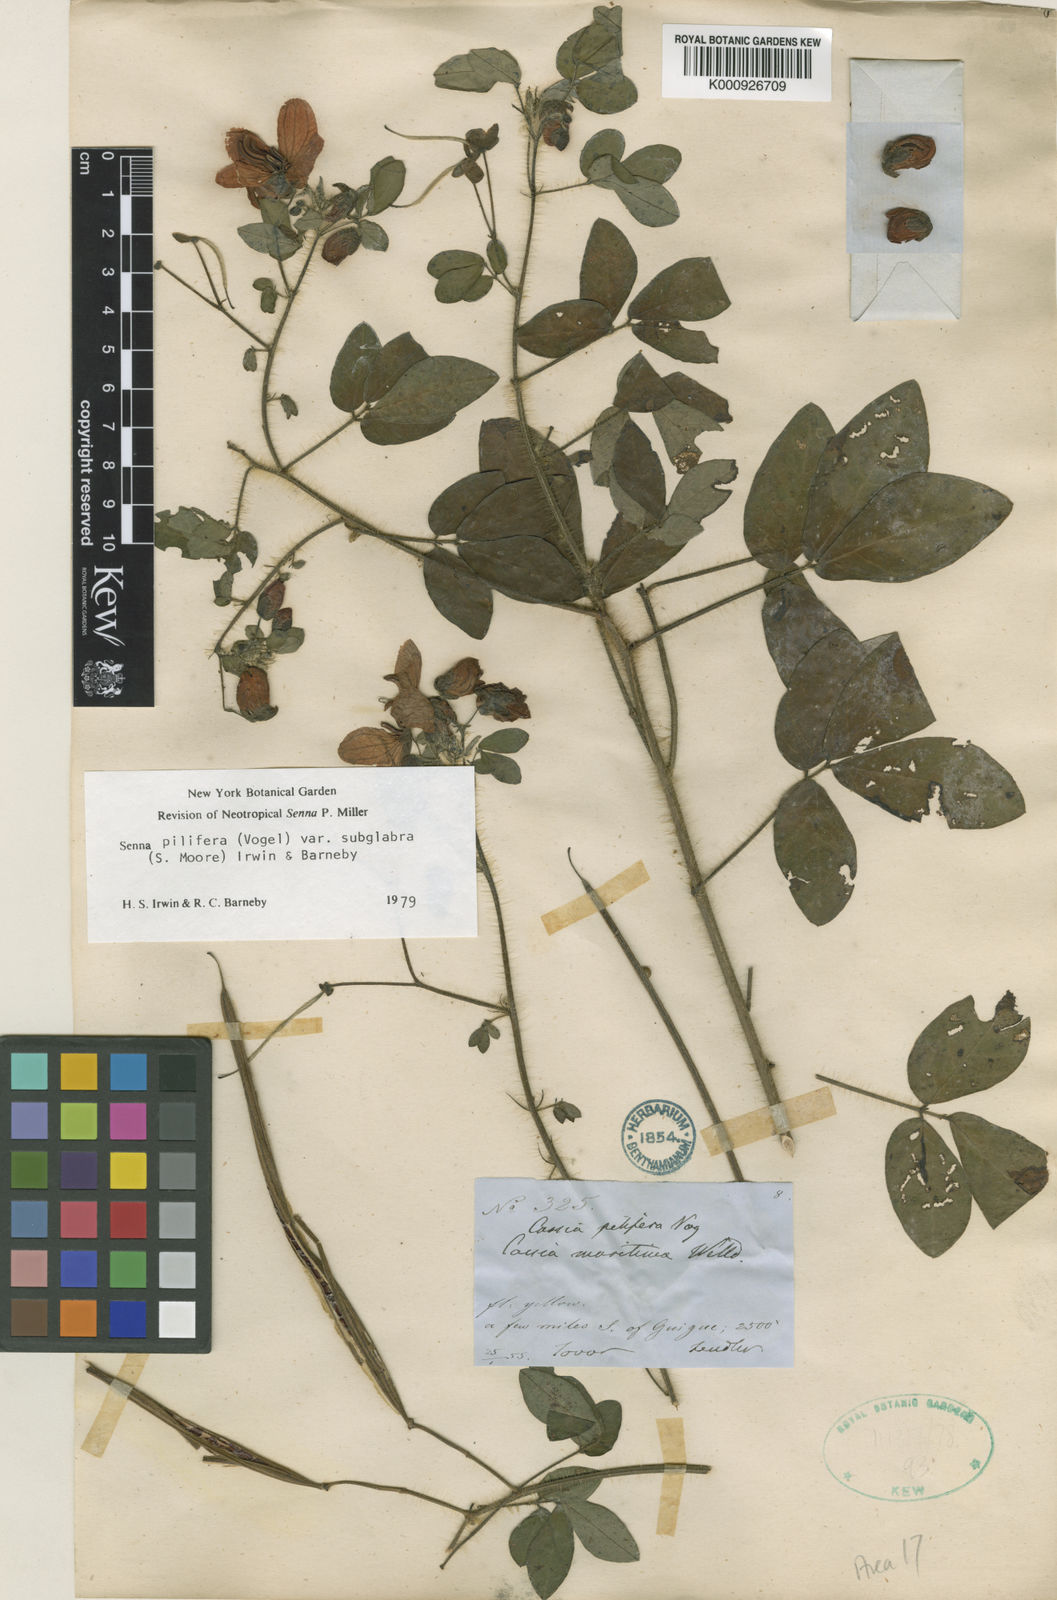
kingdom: Plantae
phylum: Tracheophyta
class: Magnoliopsida
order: Fabales
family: Fabaceae
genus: Senna
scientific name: Senna pilifera
